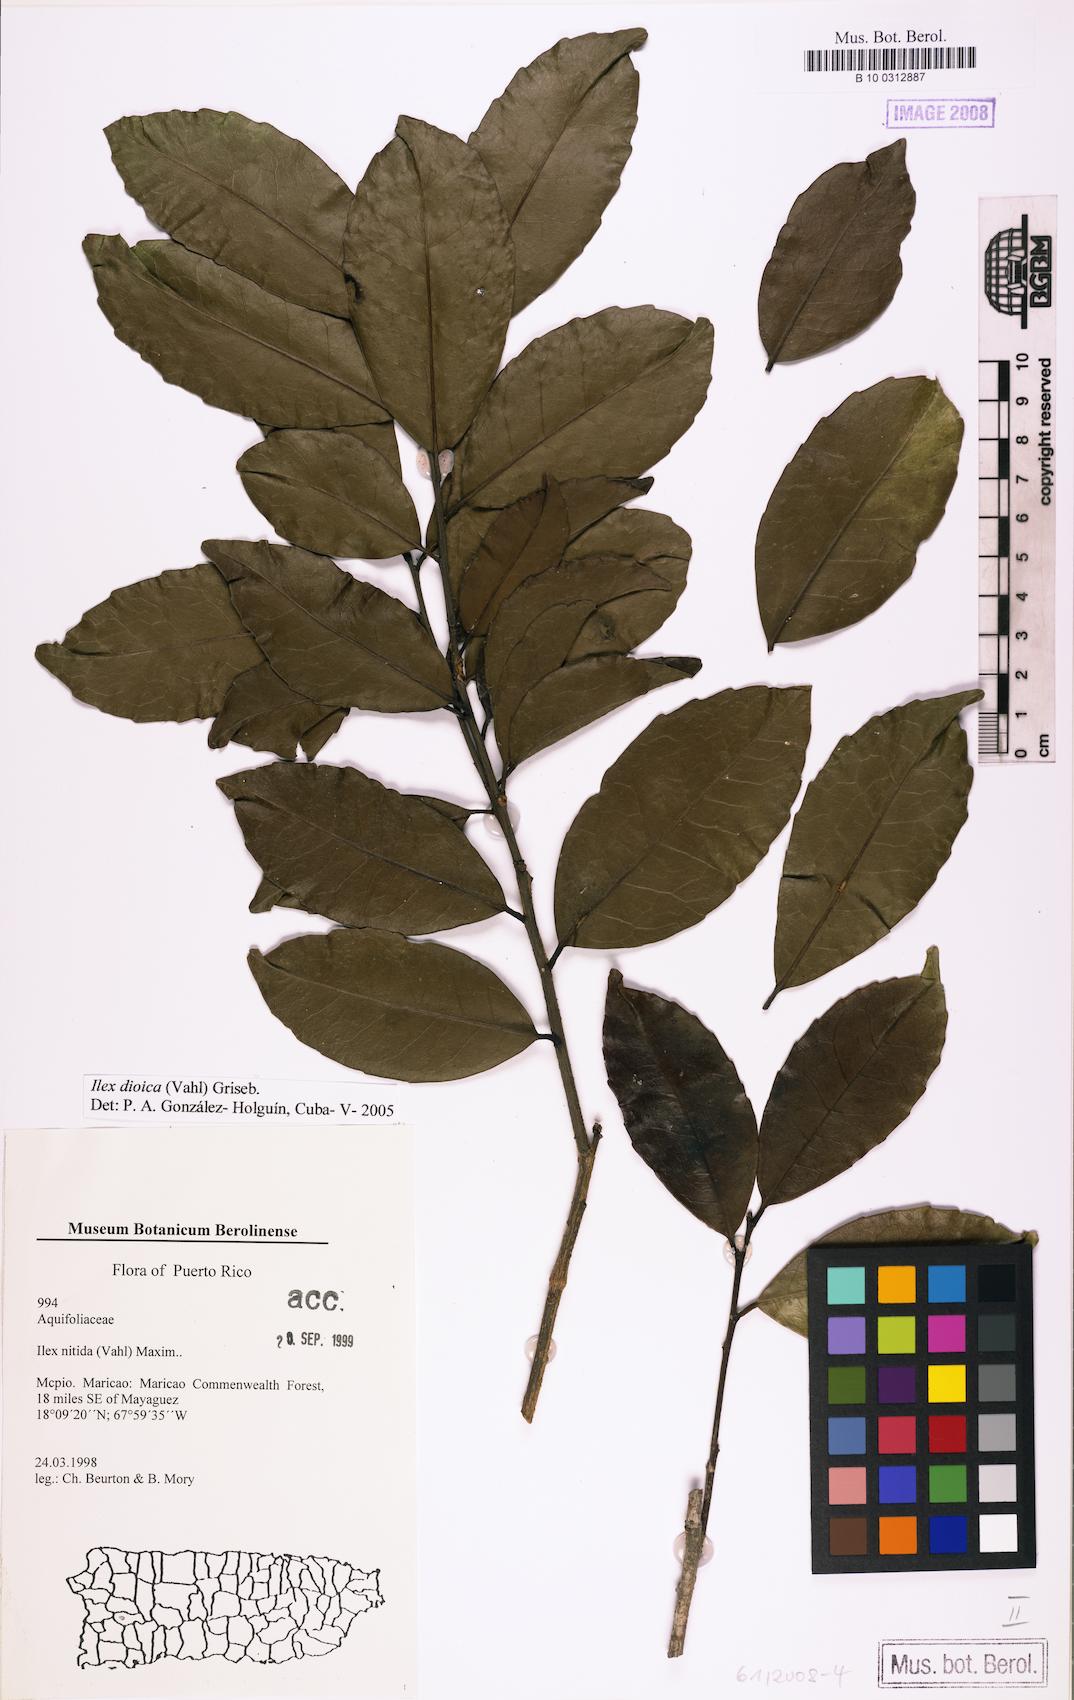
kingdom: Plantae
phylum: Tracheophyta
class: Magnoliopsida
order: Aquifoliales
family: Aquifoliaceae
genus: Ilex
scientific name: Ilex dioica
